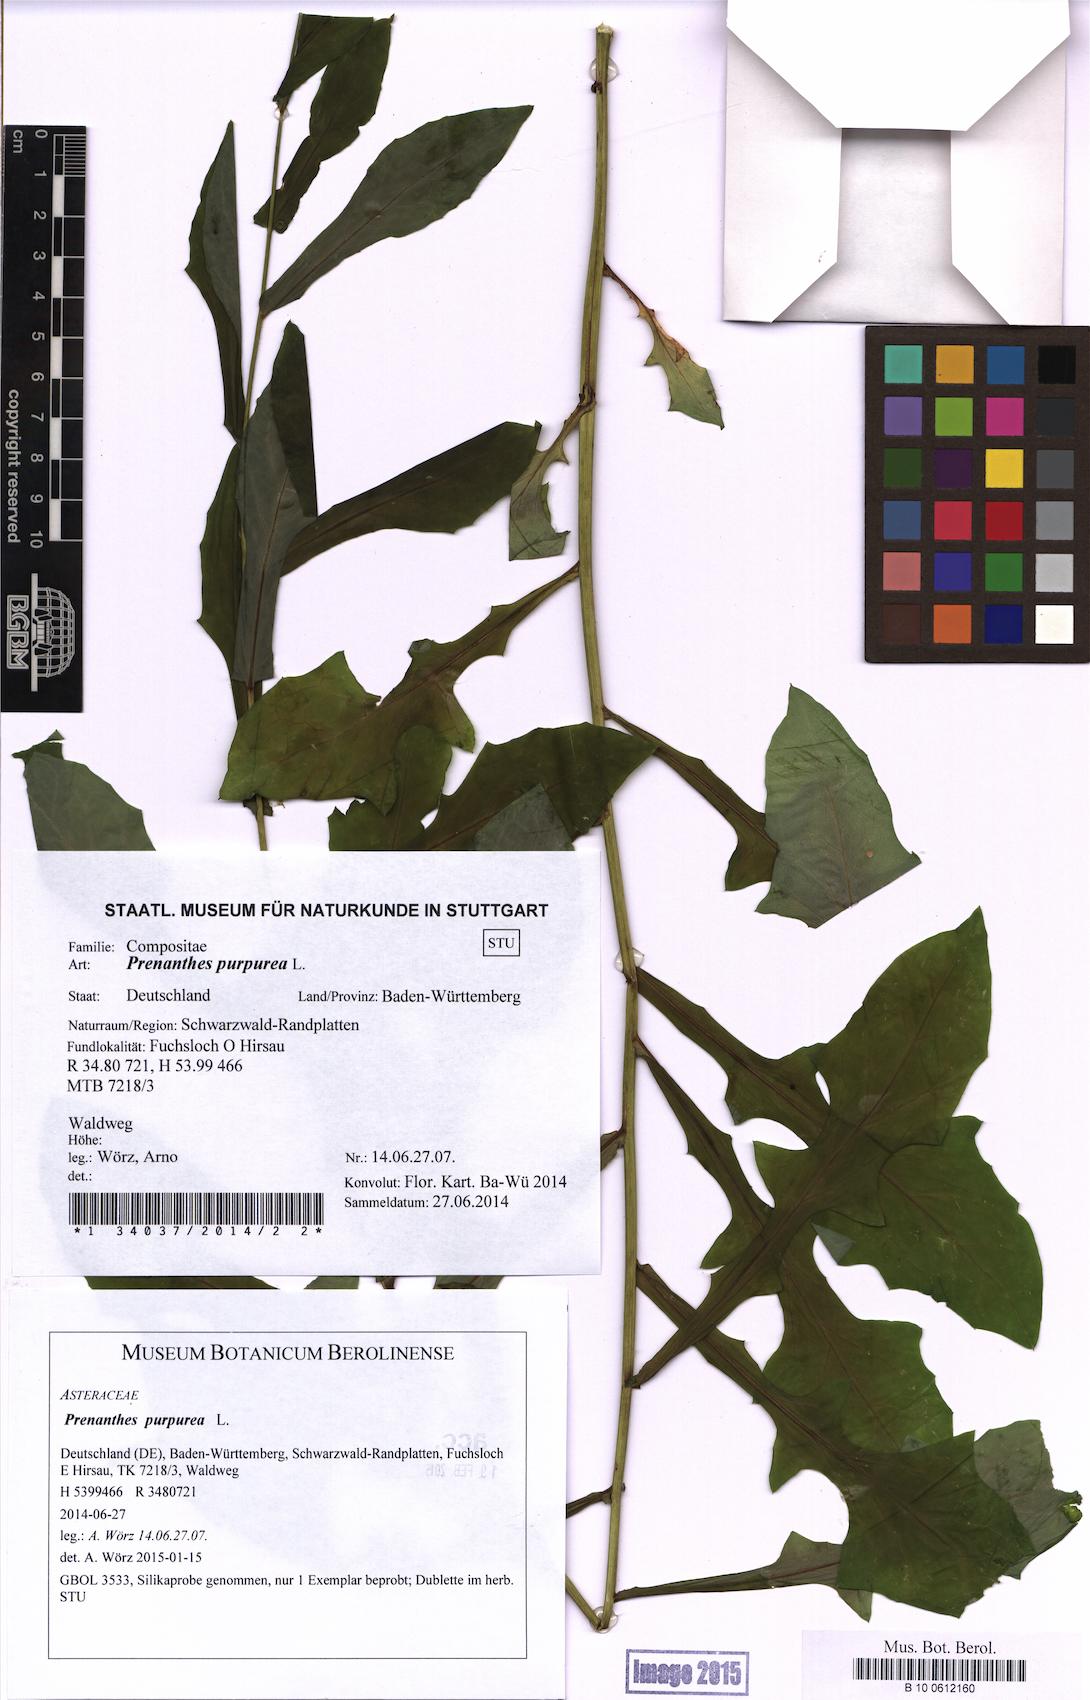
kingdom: Plantae
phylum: Tracheophyta
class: Magnoliopsida
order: Asterales
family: Asteraceae
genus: Prenanthes
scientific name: Prenanthes purpurea
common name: Purple lettuce
